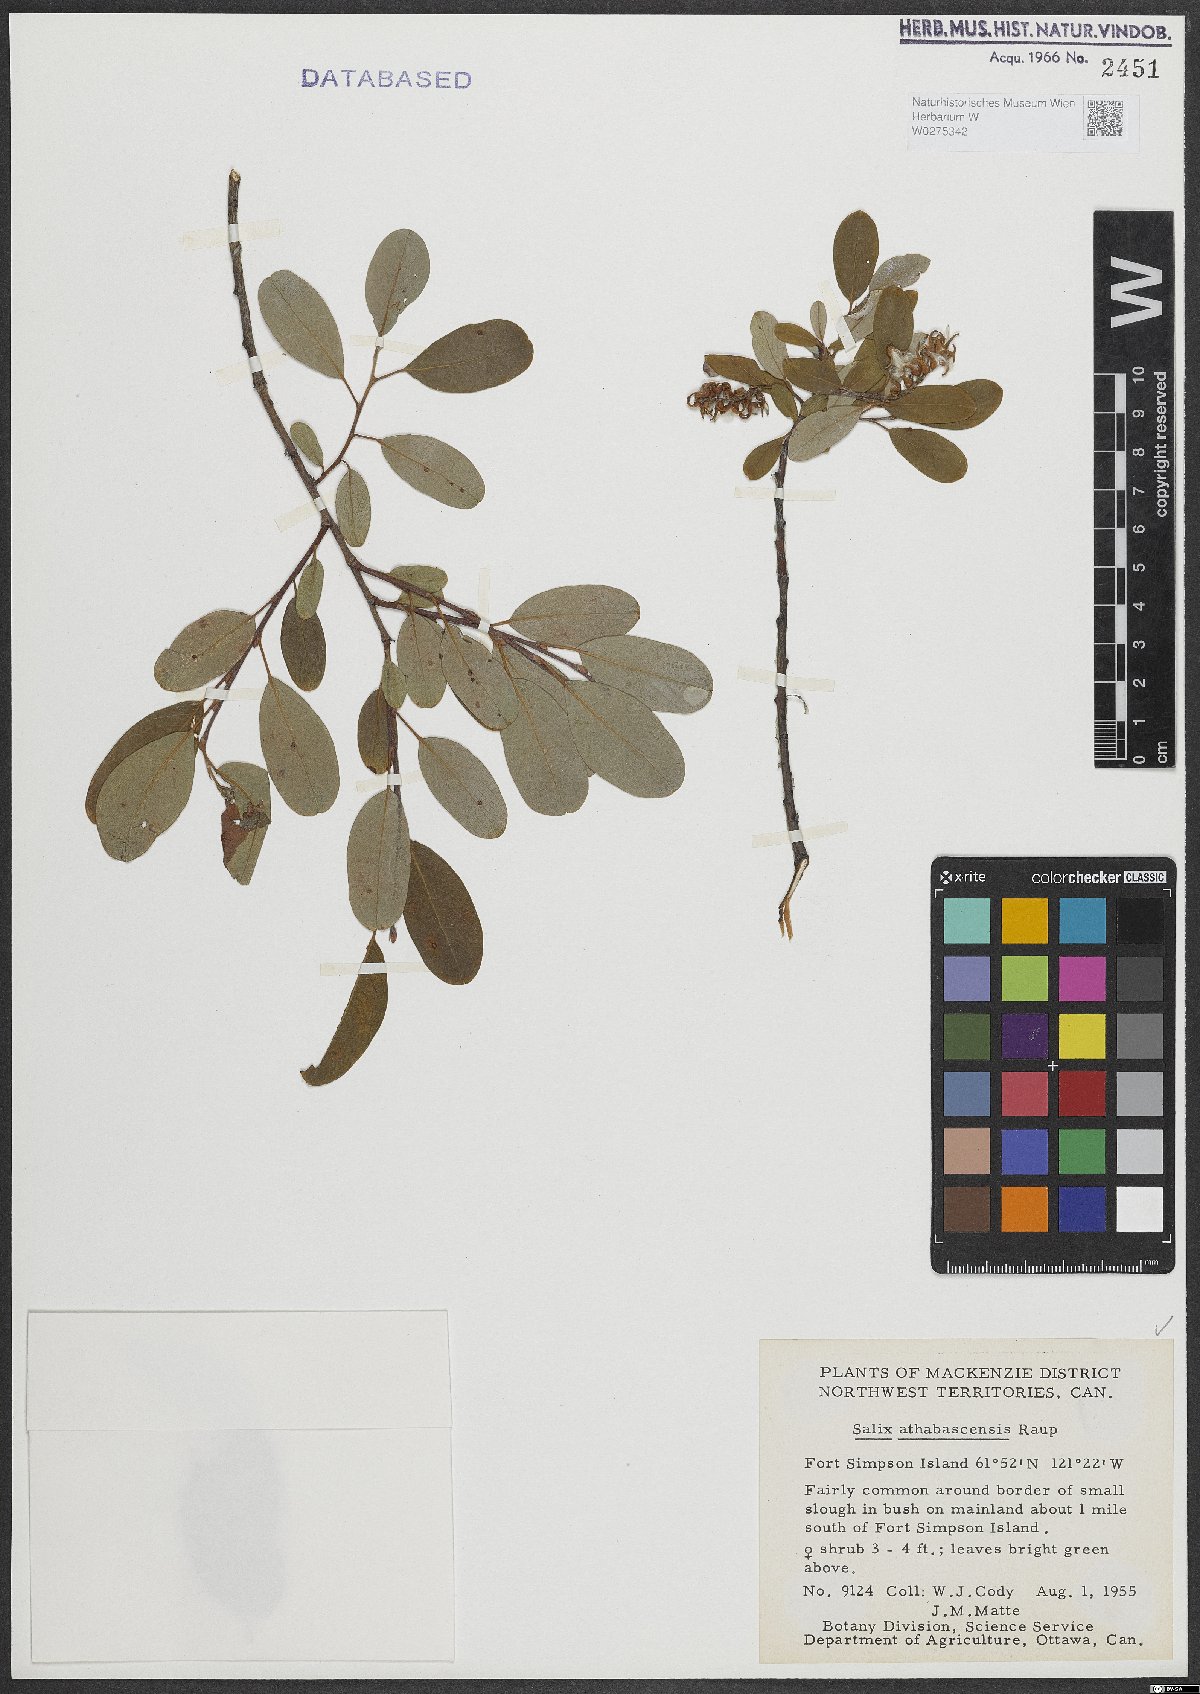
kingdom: Plantae
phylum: Tracheophyta
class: Magnoliopsida
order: Malpighiales
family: Salicaceae
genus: Salix
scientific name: Salix athabascensis
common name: Athabasca willow
